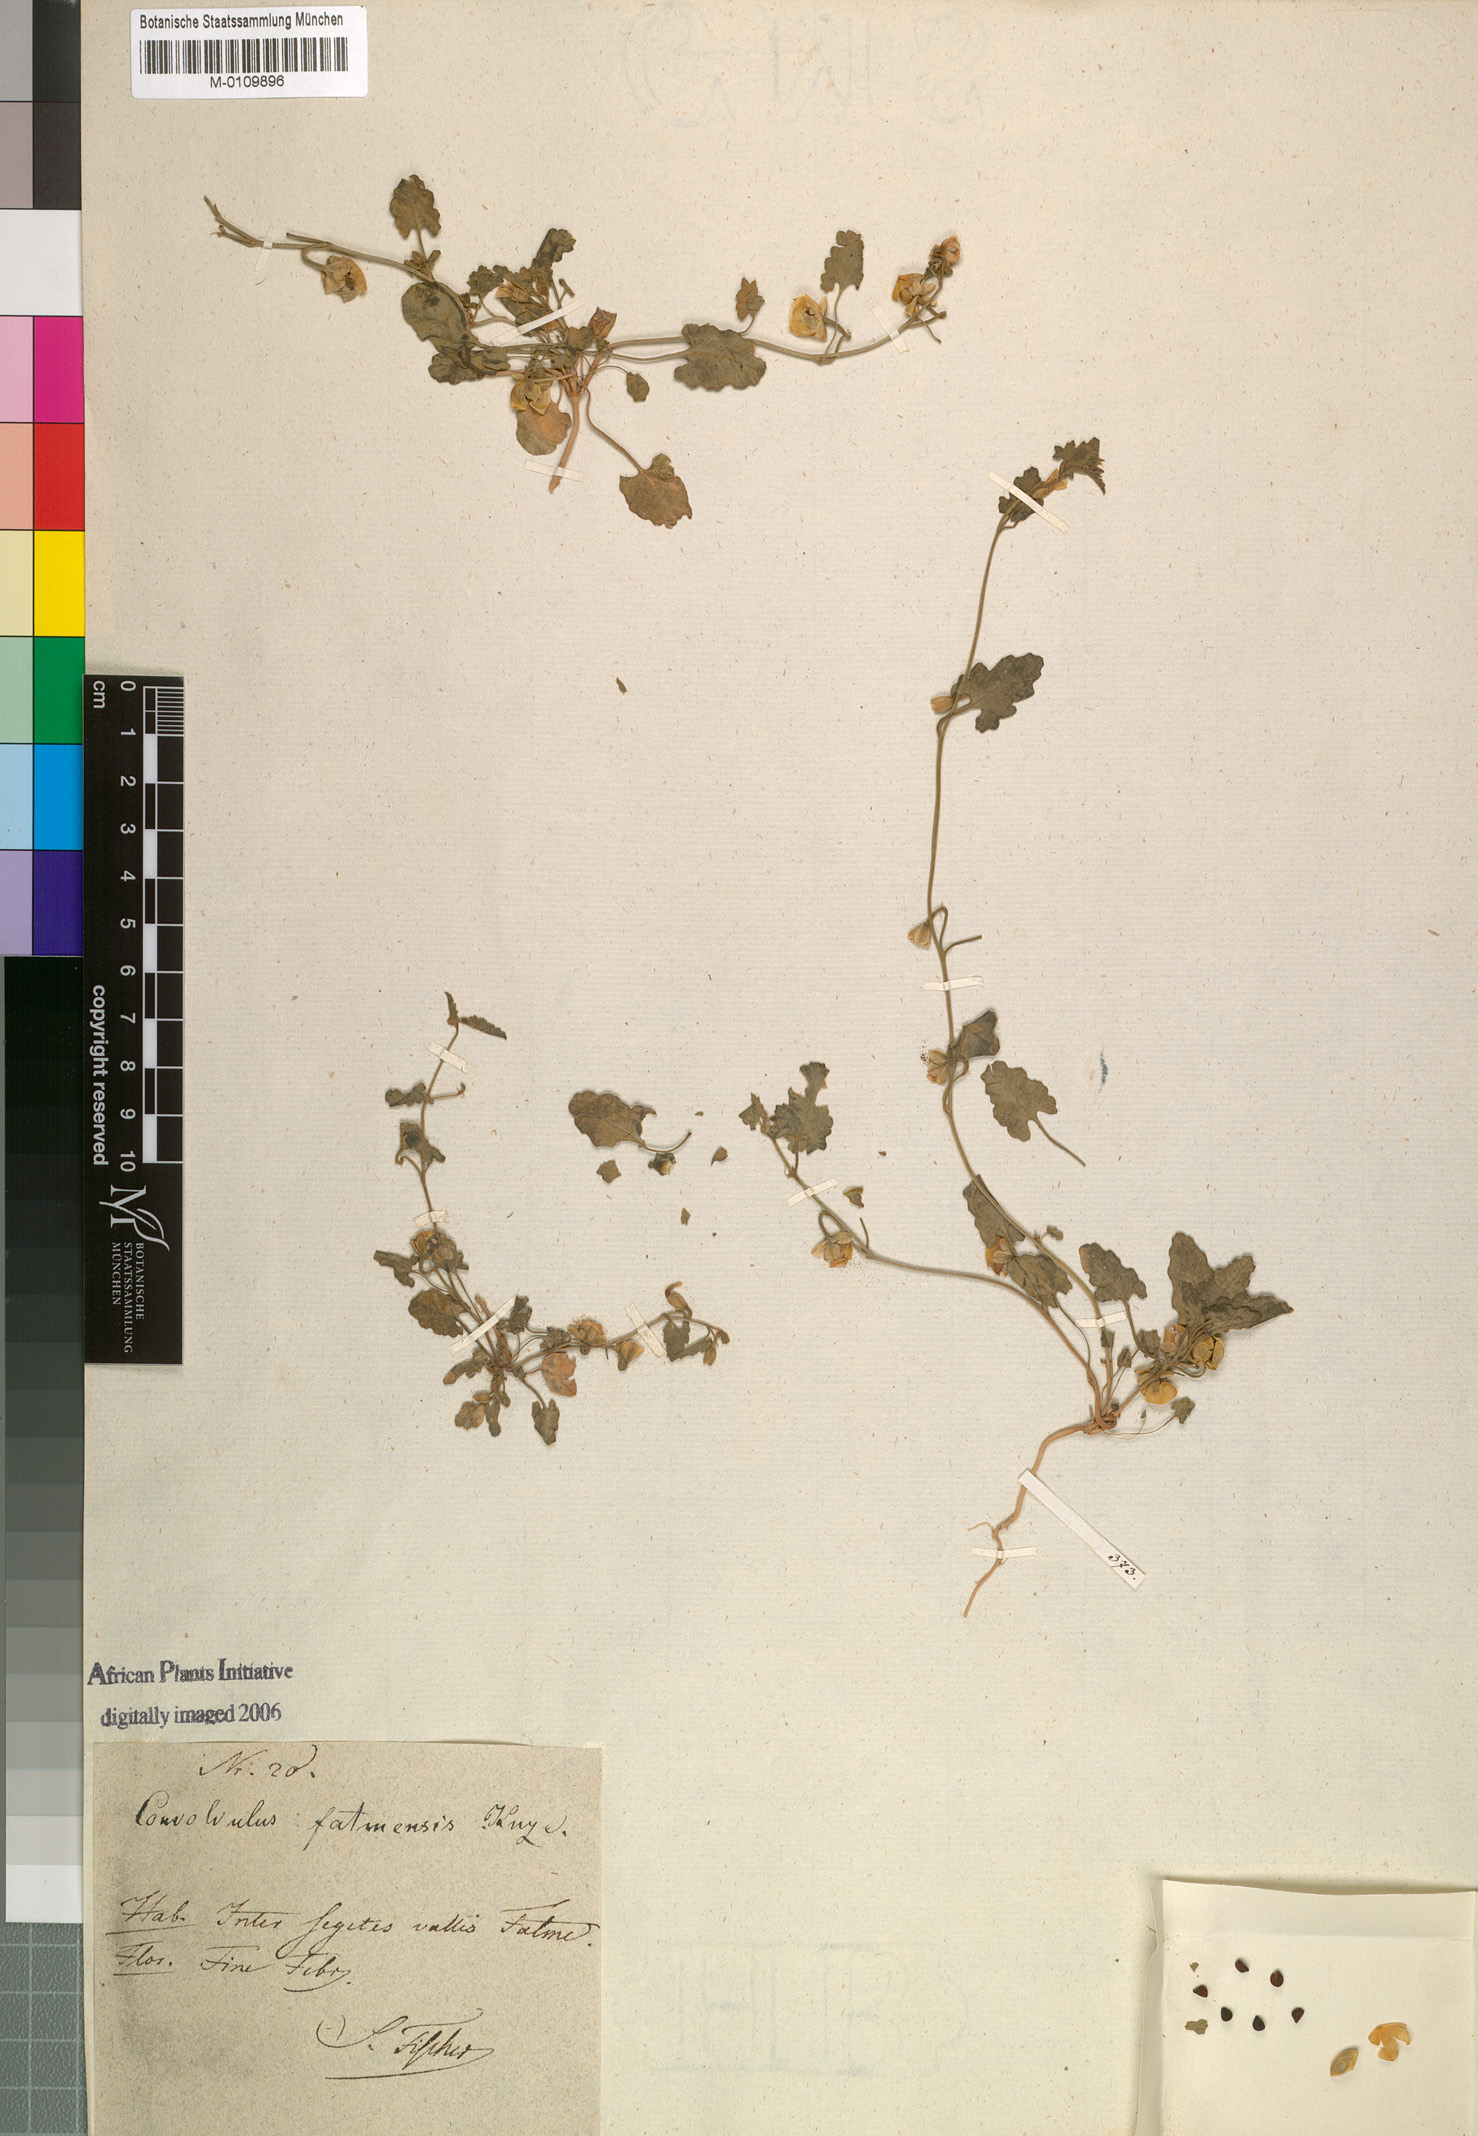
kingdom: Plantae
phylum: Tracheophyta
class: Magnoliopsida
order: Solanales
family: Convolvulaceae
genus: Convolvulus
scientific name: Convolvulus fatmensis
